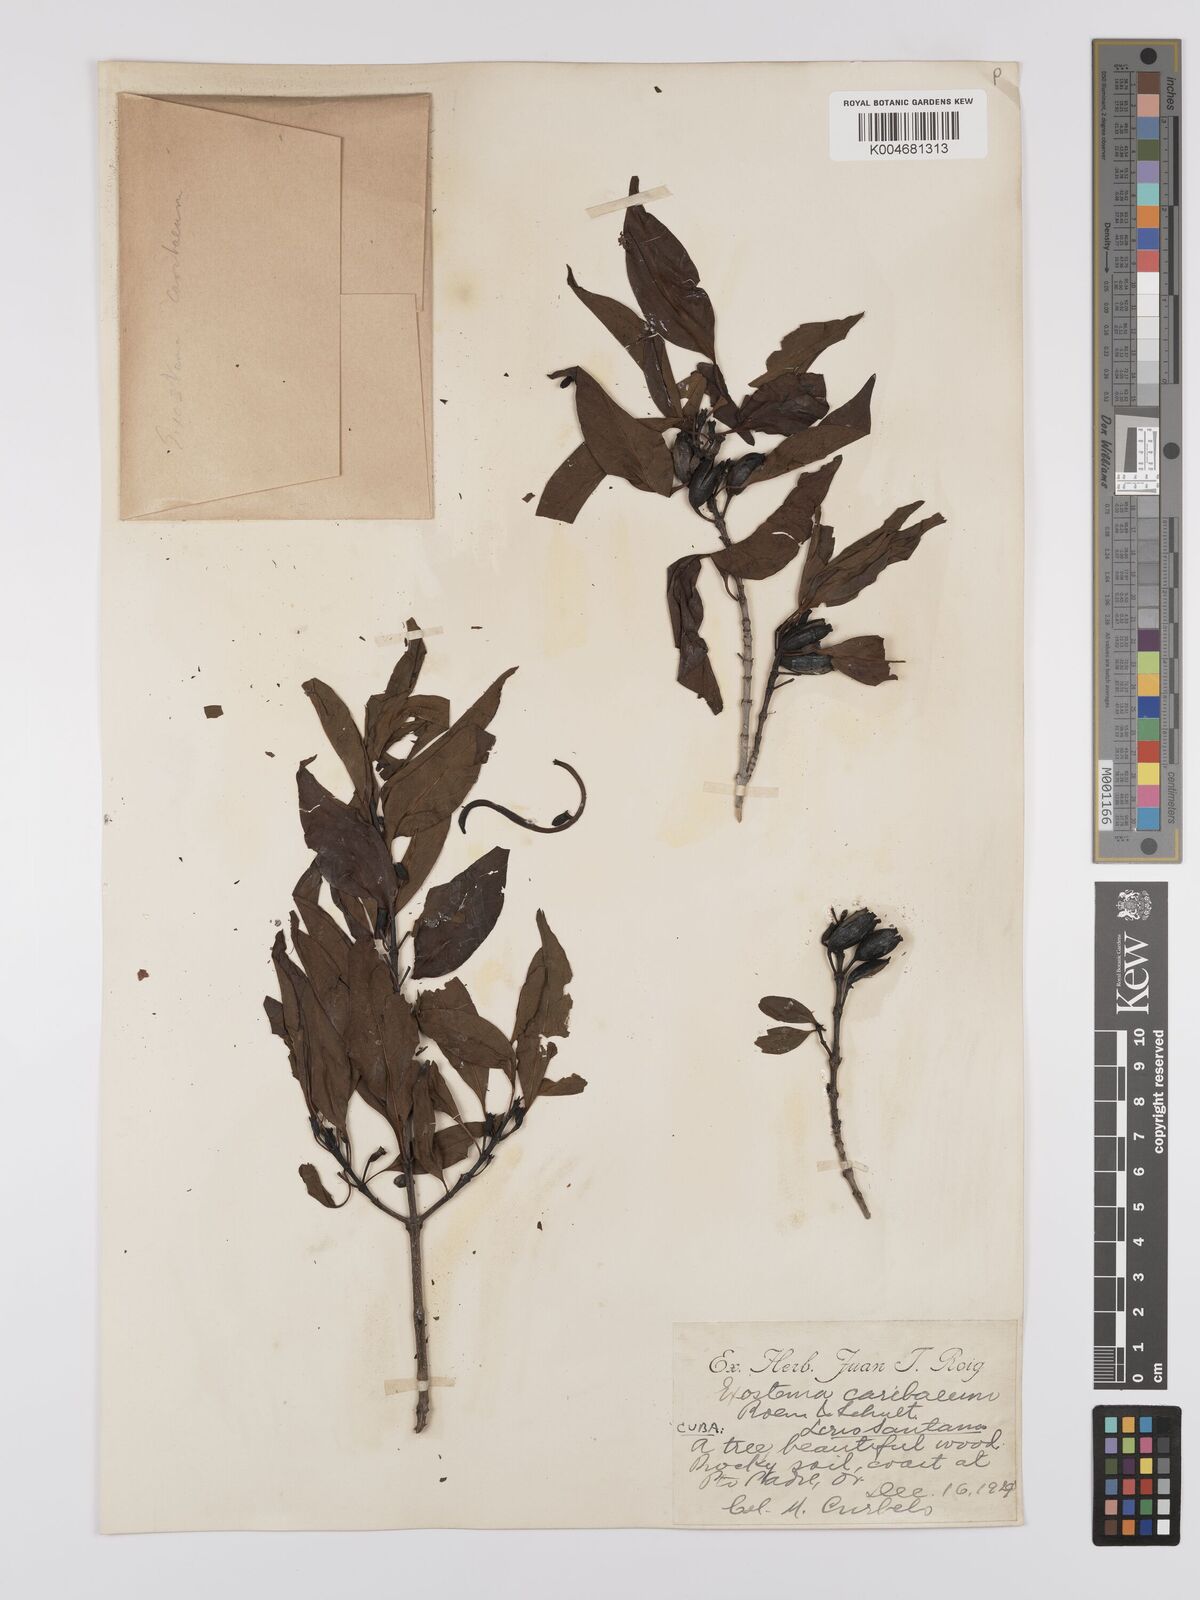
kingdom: Plantae
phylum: Tracheophyta
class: Magnoliopsida
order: Gentianales
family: Rubiaceae
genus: Exostema
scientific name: Exostema caribaeum
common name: Princewood
